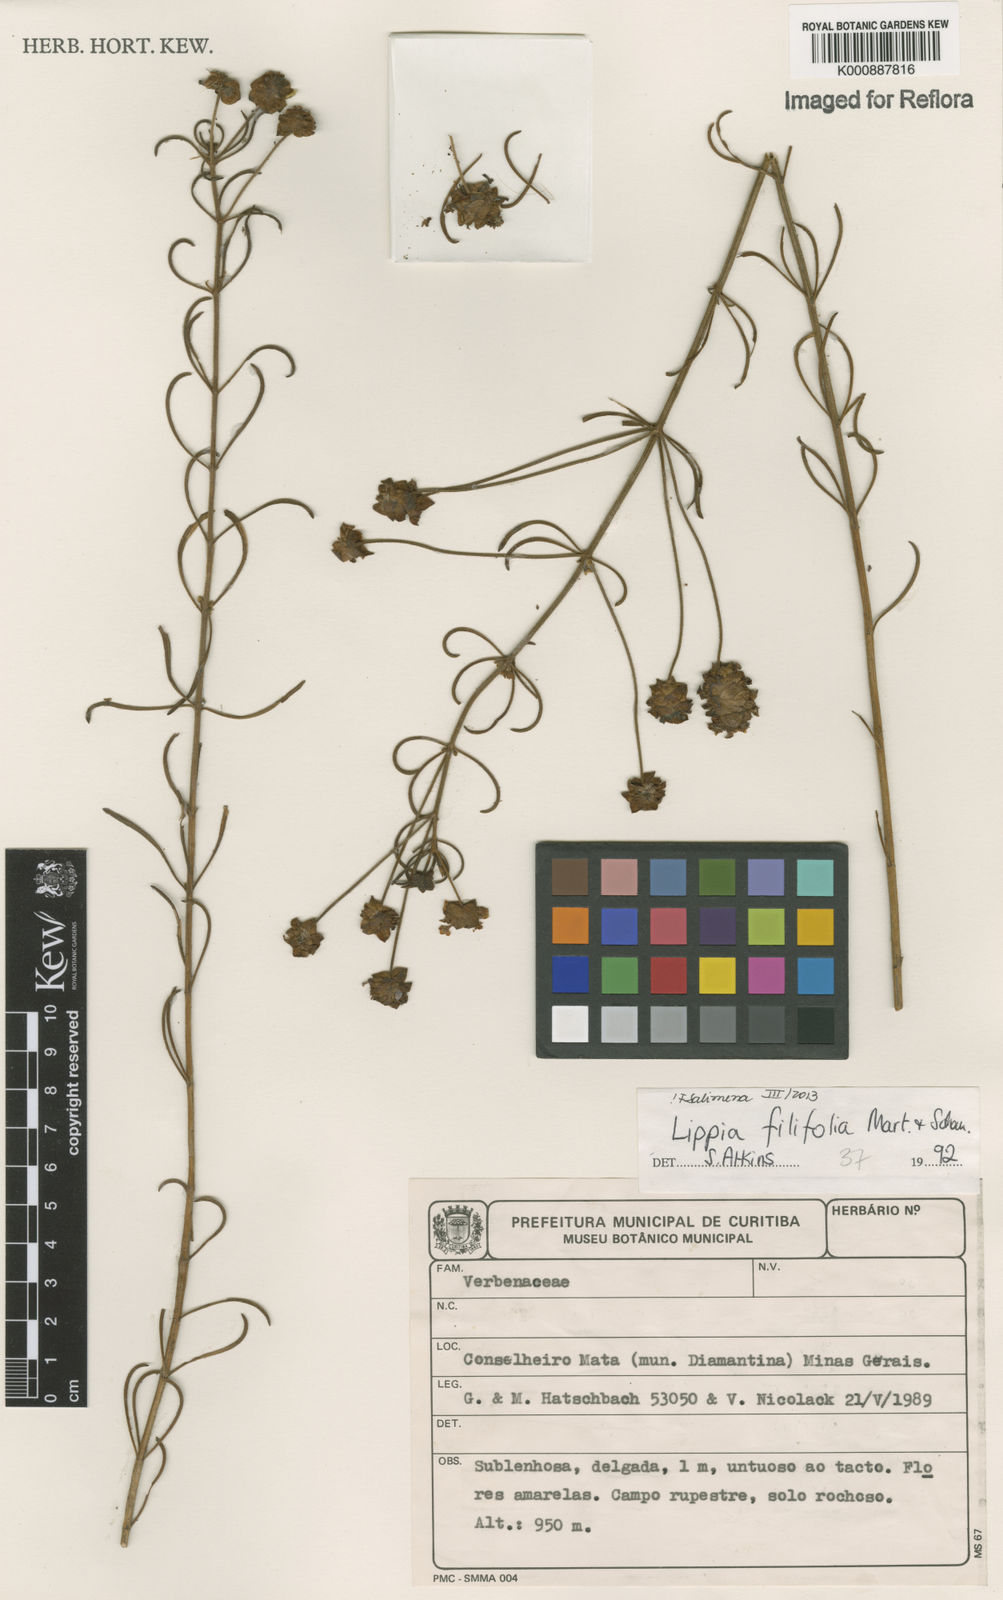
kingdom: Plantae
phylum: Tracheophyta
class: Magnoliopsida
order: Lamiales
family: Verbenaceae
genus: Lippia
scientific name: Lippia filifolia
